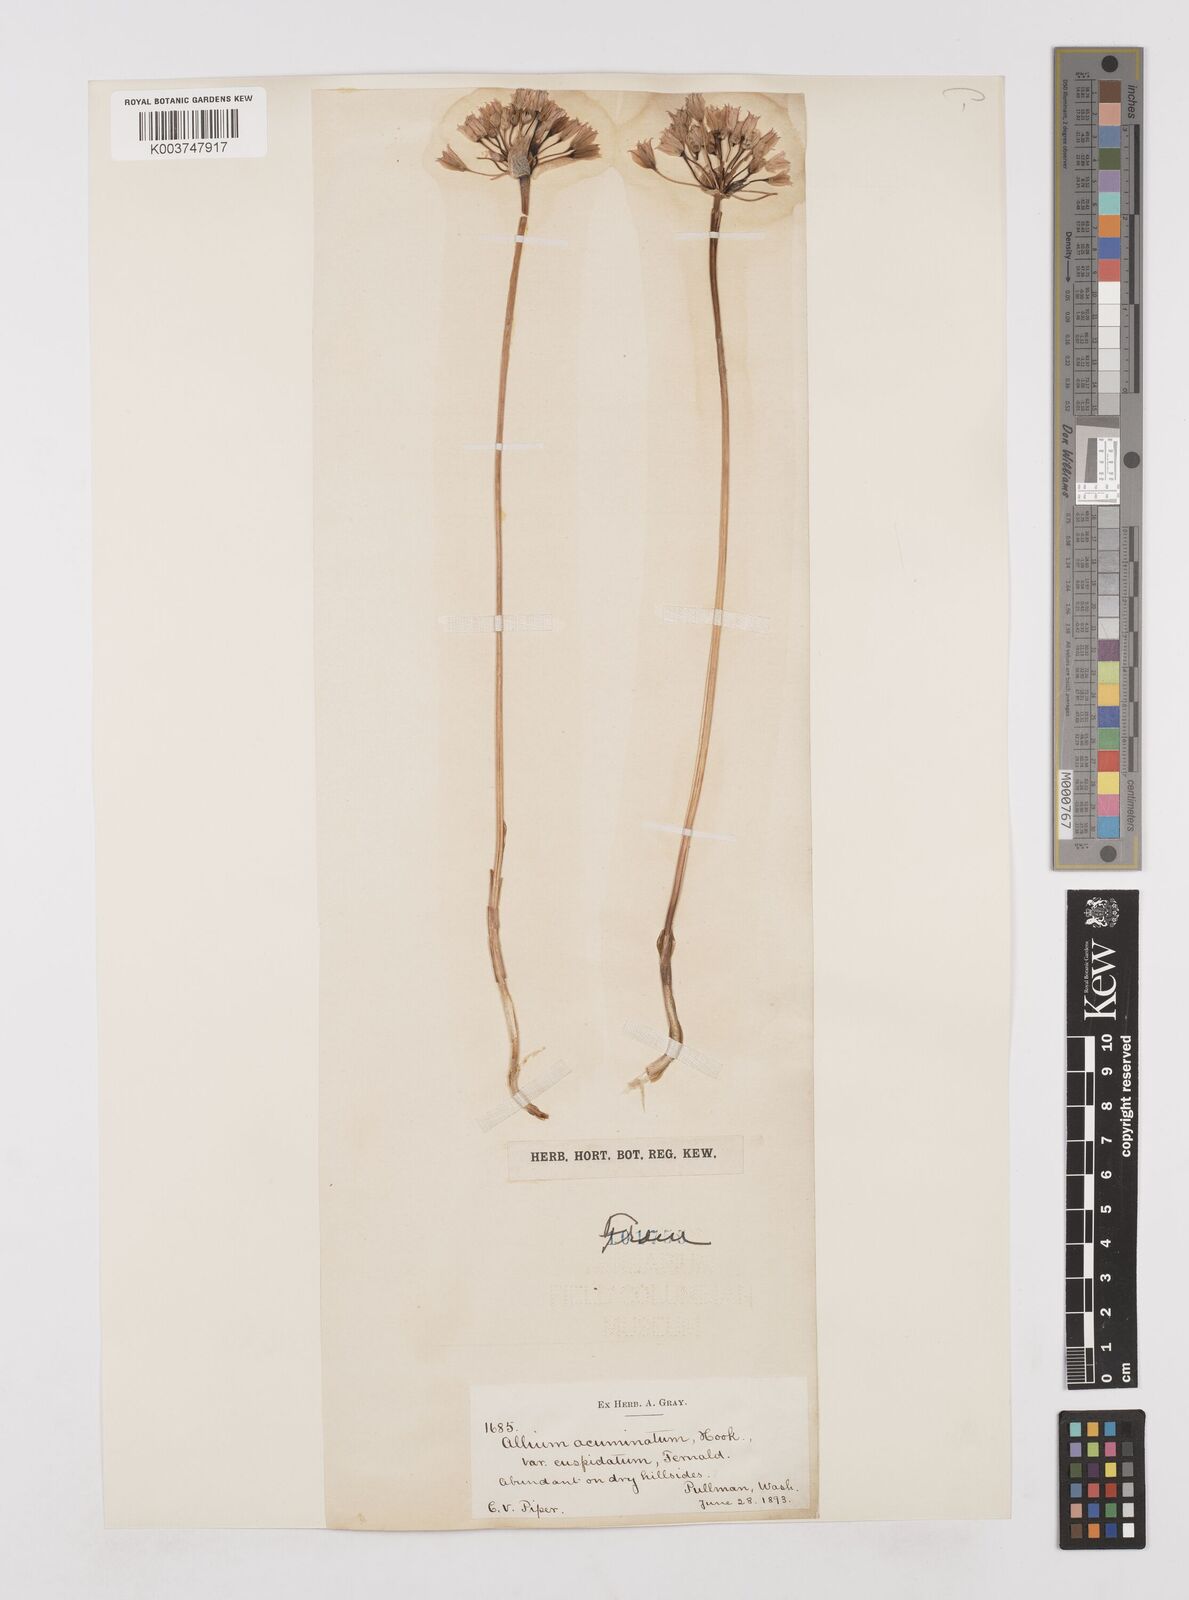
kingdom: Plantae
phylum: Tracheophyta
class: Liliopsida
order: Asparagales
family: Amaryllidaceae
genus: Allium
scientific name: Allium acuminatum
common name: Hooker's onion
